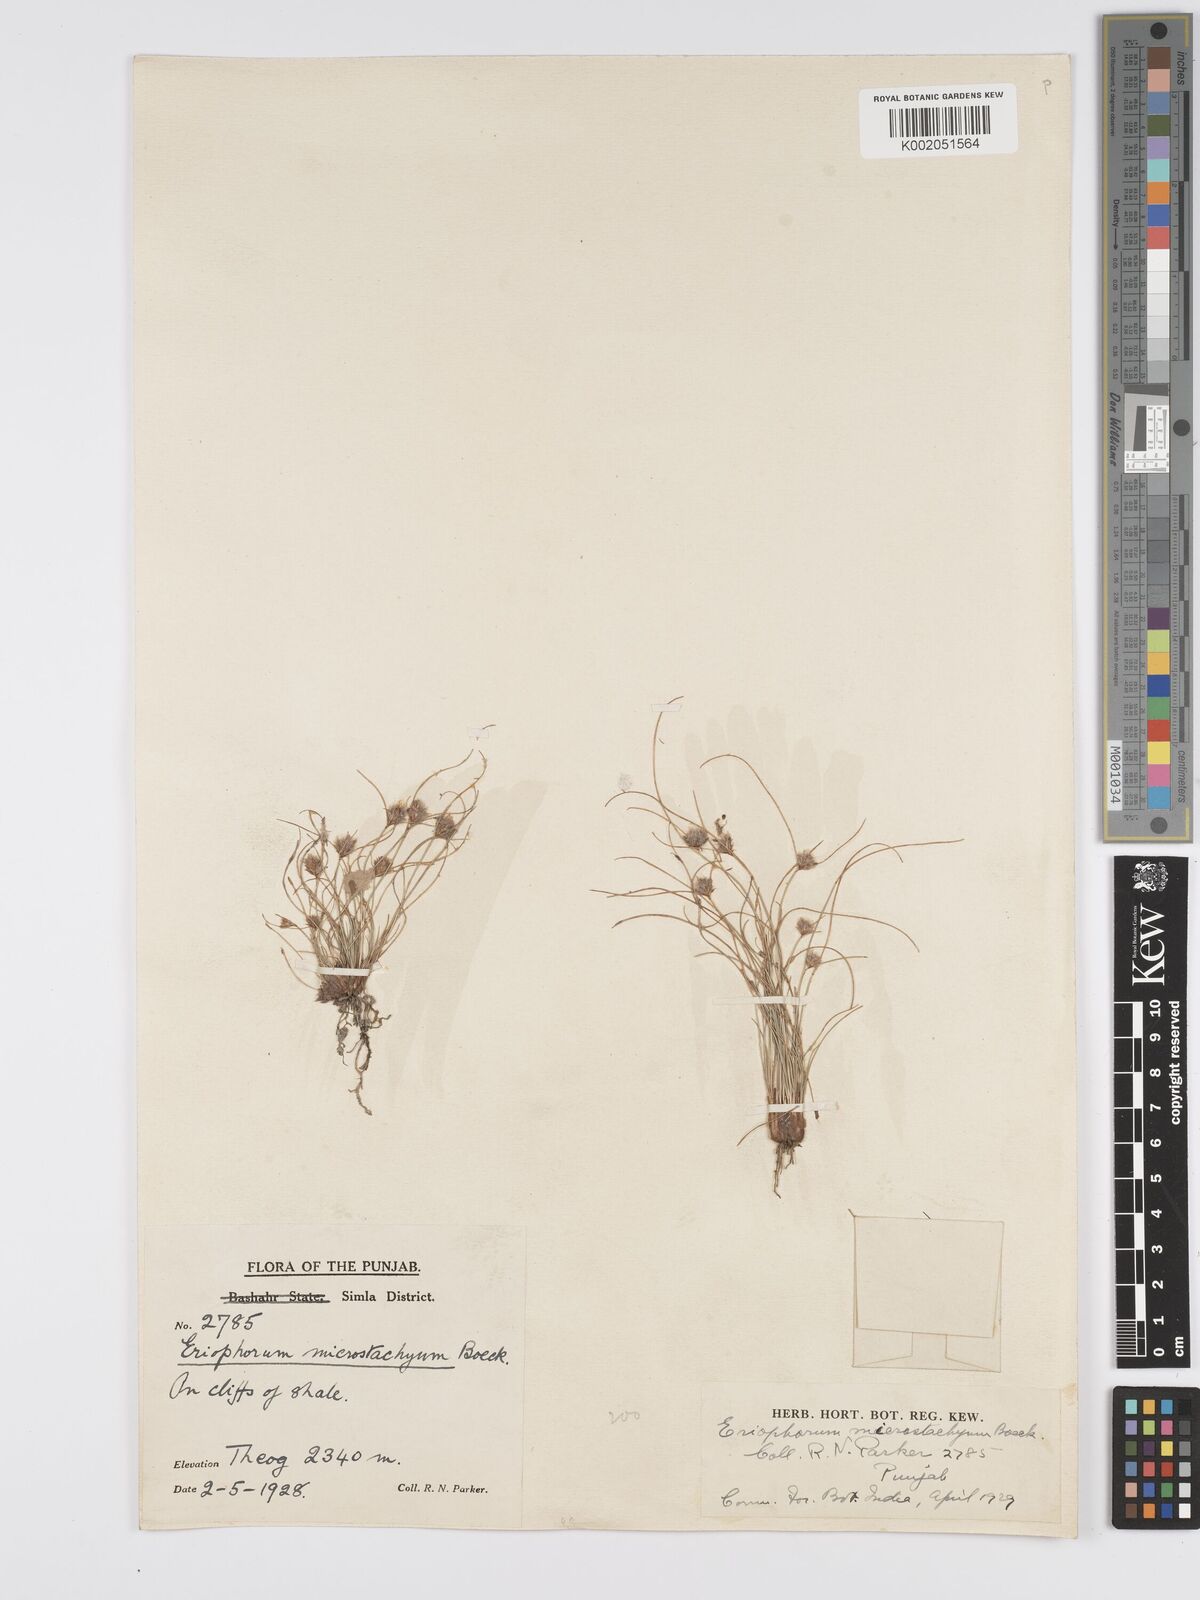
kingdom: Plantae
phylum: Tracheophyta
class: Liliopsida
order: Poales
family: Cyperaceae
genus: Erioscirpus
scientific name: Erioscirpus microstachyus
